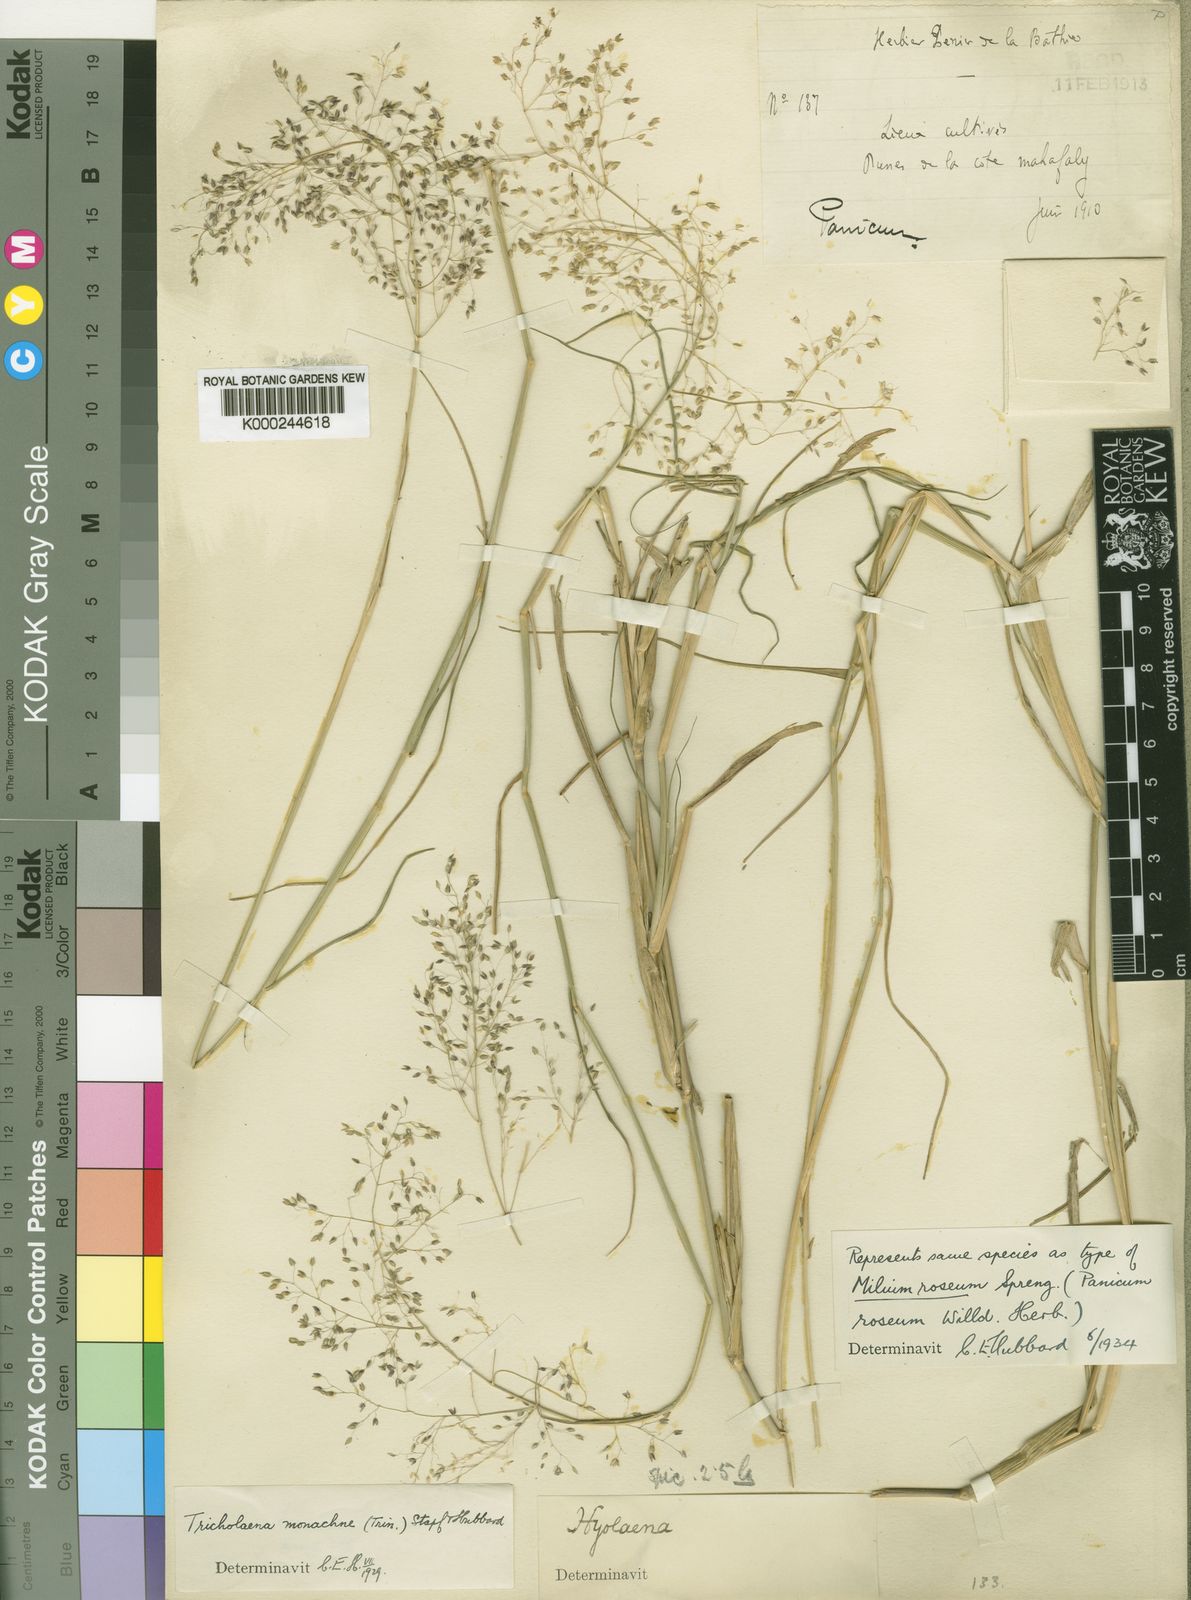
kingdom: Plantae
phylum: Tracheophyta
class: Liliopsida
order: Poales
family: Poaceae
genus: Tricholaena
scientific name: Tricholaena monachne
